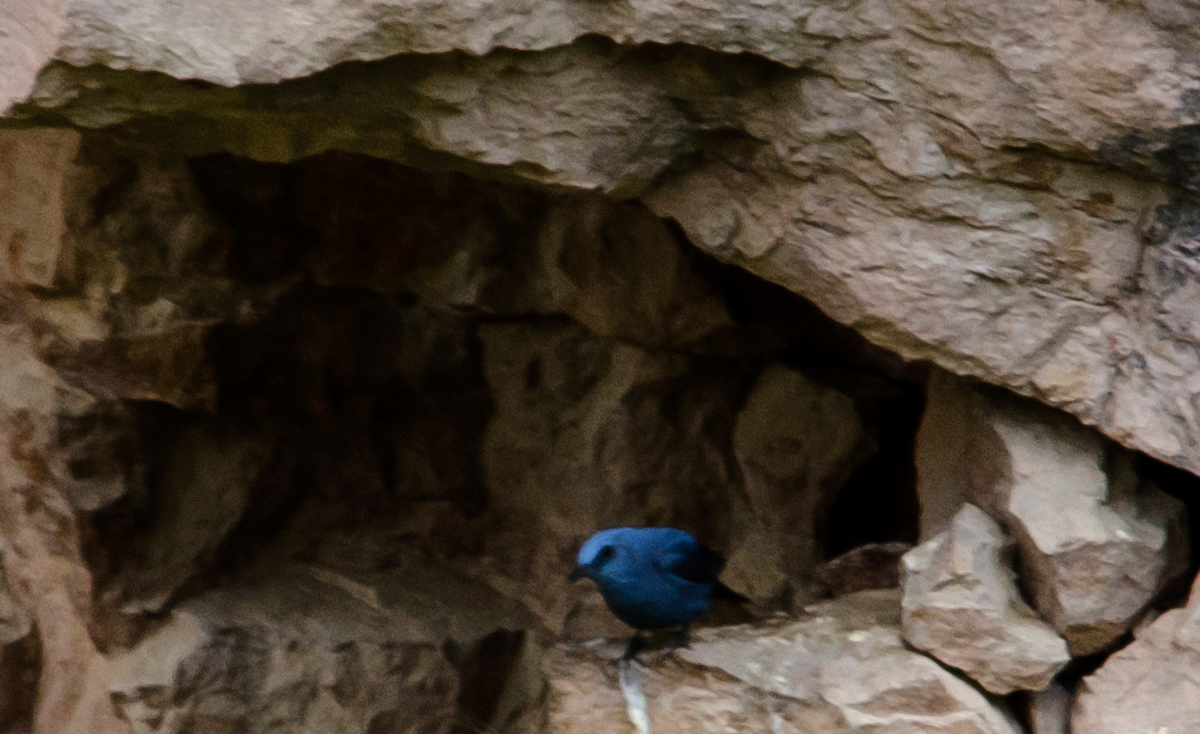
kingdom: Animalia
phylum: Chordata
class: Aves
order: Passeriformes
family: Muscicapidae
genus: Monticola
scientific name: Monticola solitarius
